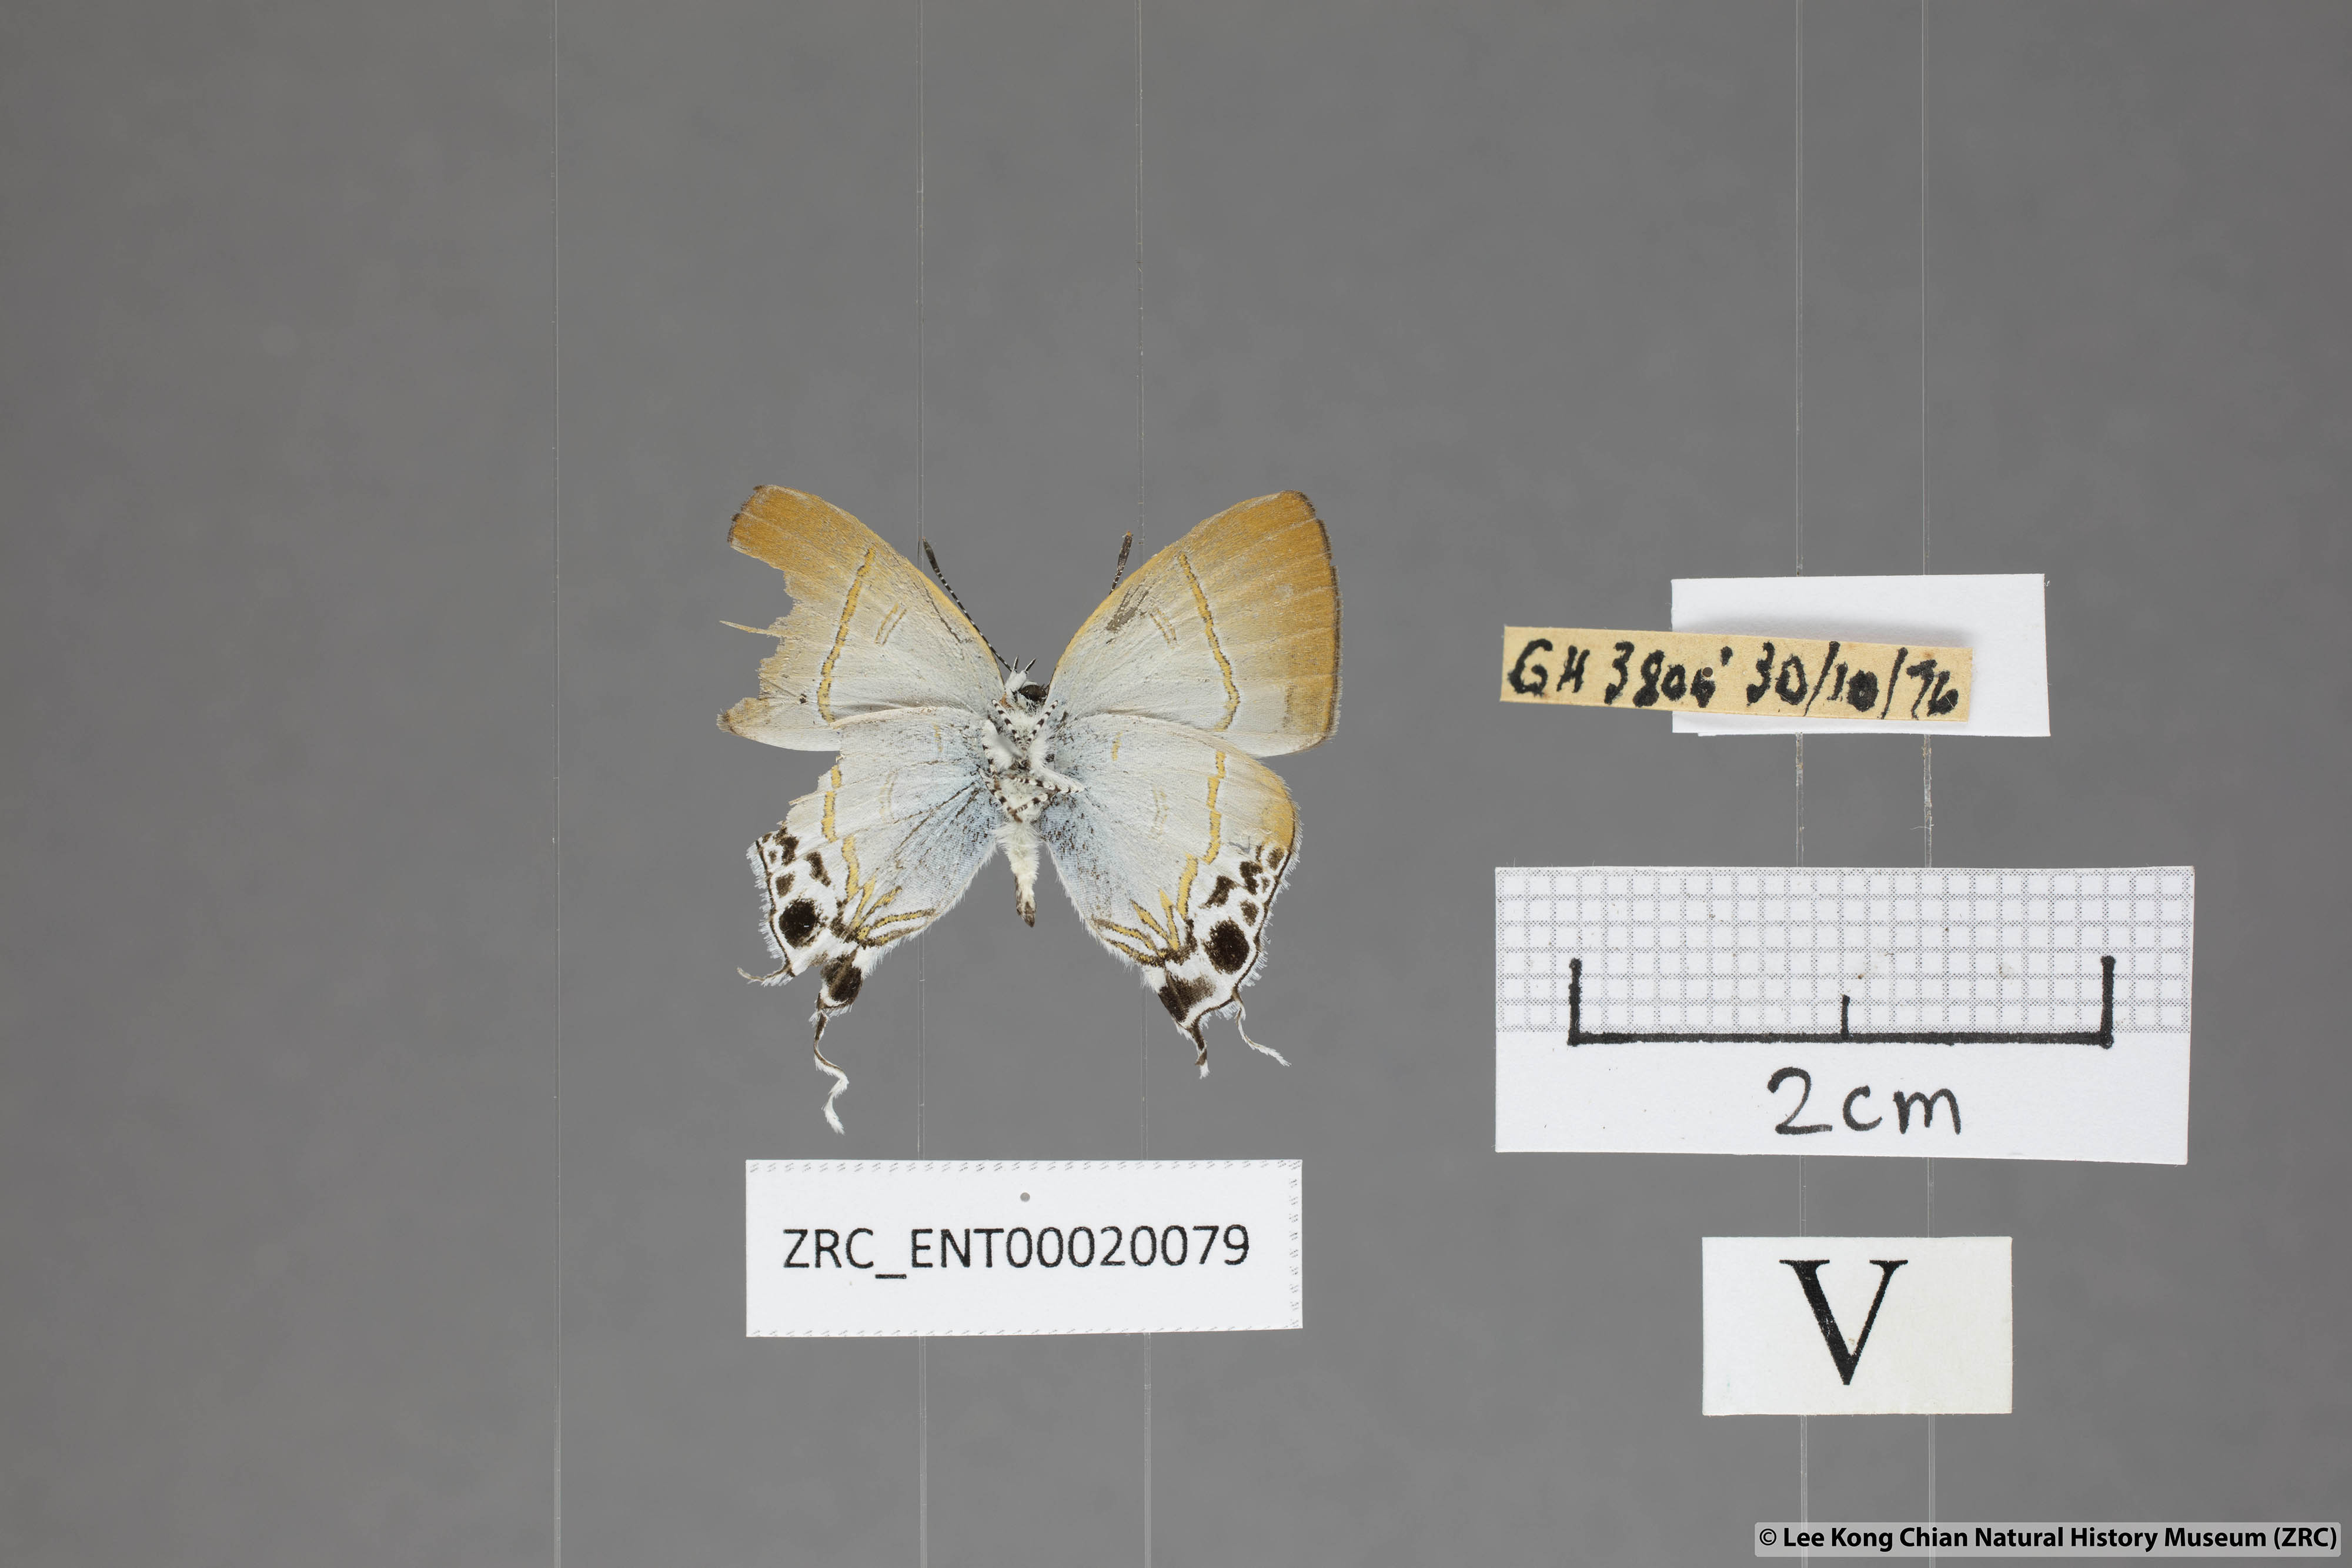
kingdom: Animalia
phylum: Arthropoda
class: Insecta
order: Lepidoptera
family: Lycaenidae
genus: Hypolycaena
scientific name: Hypolycaena amabilis
